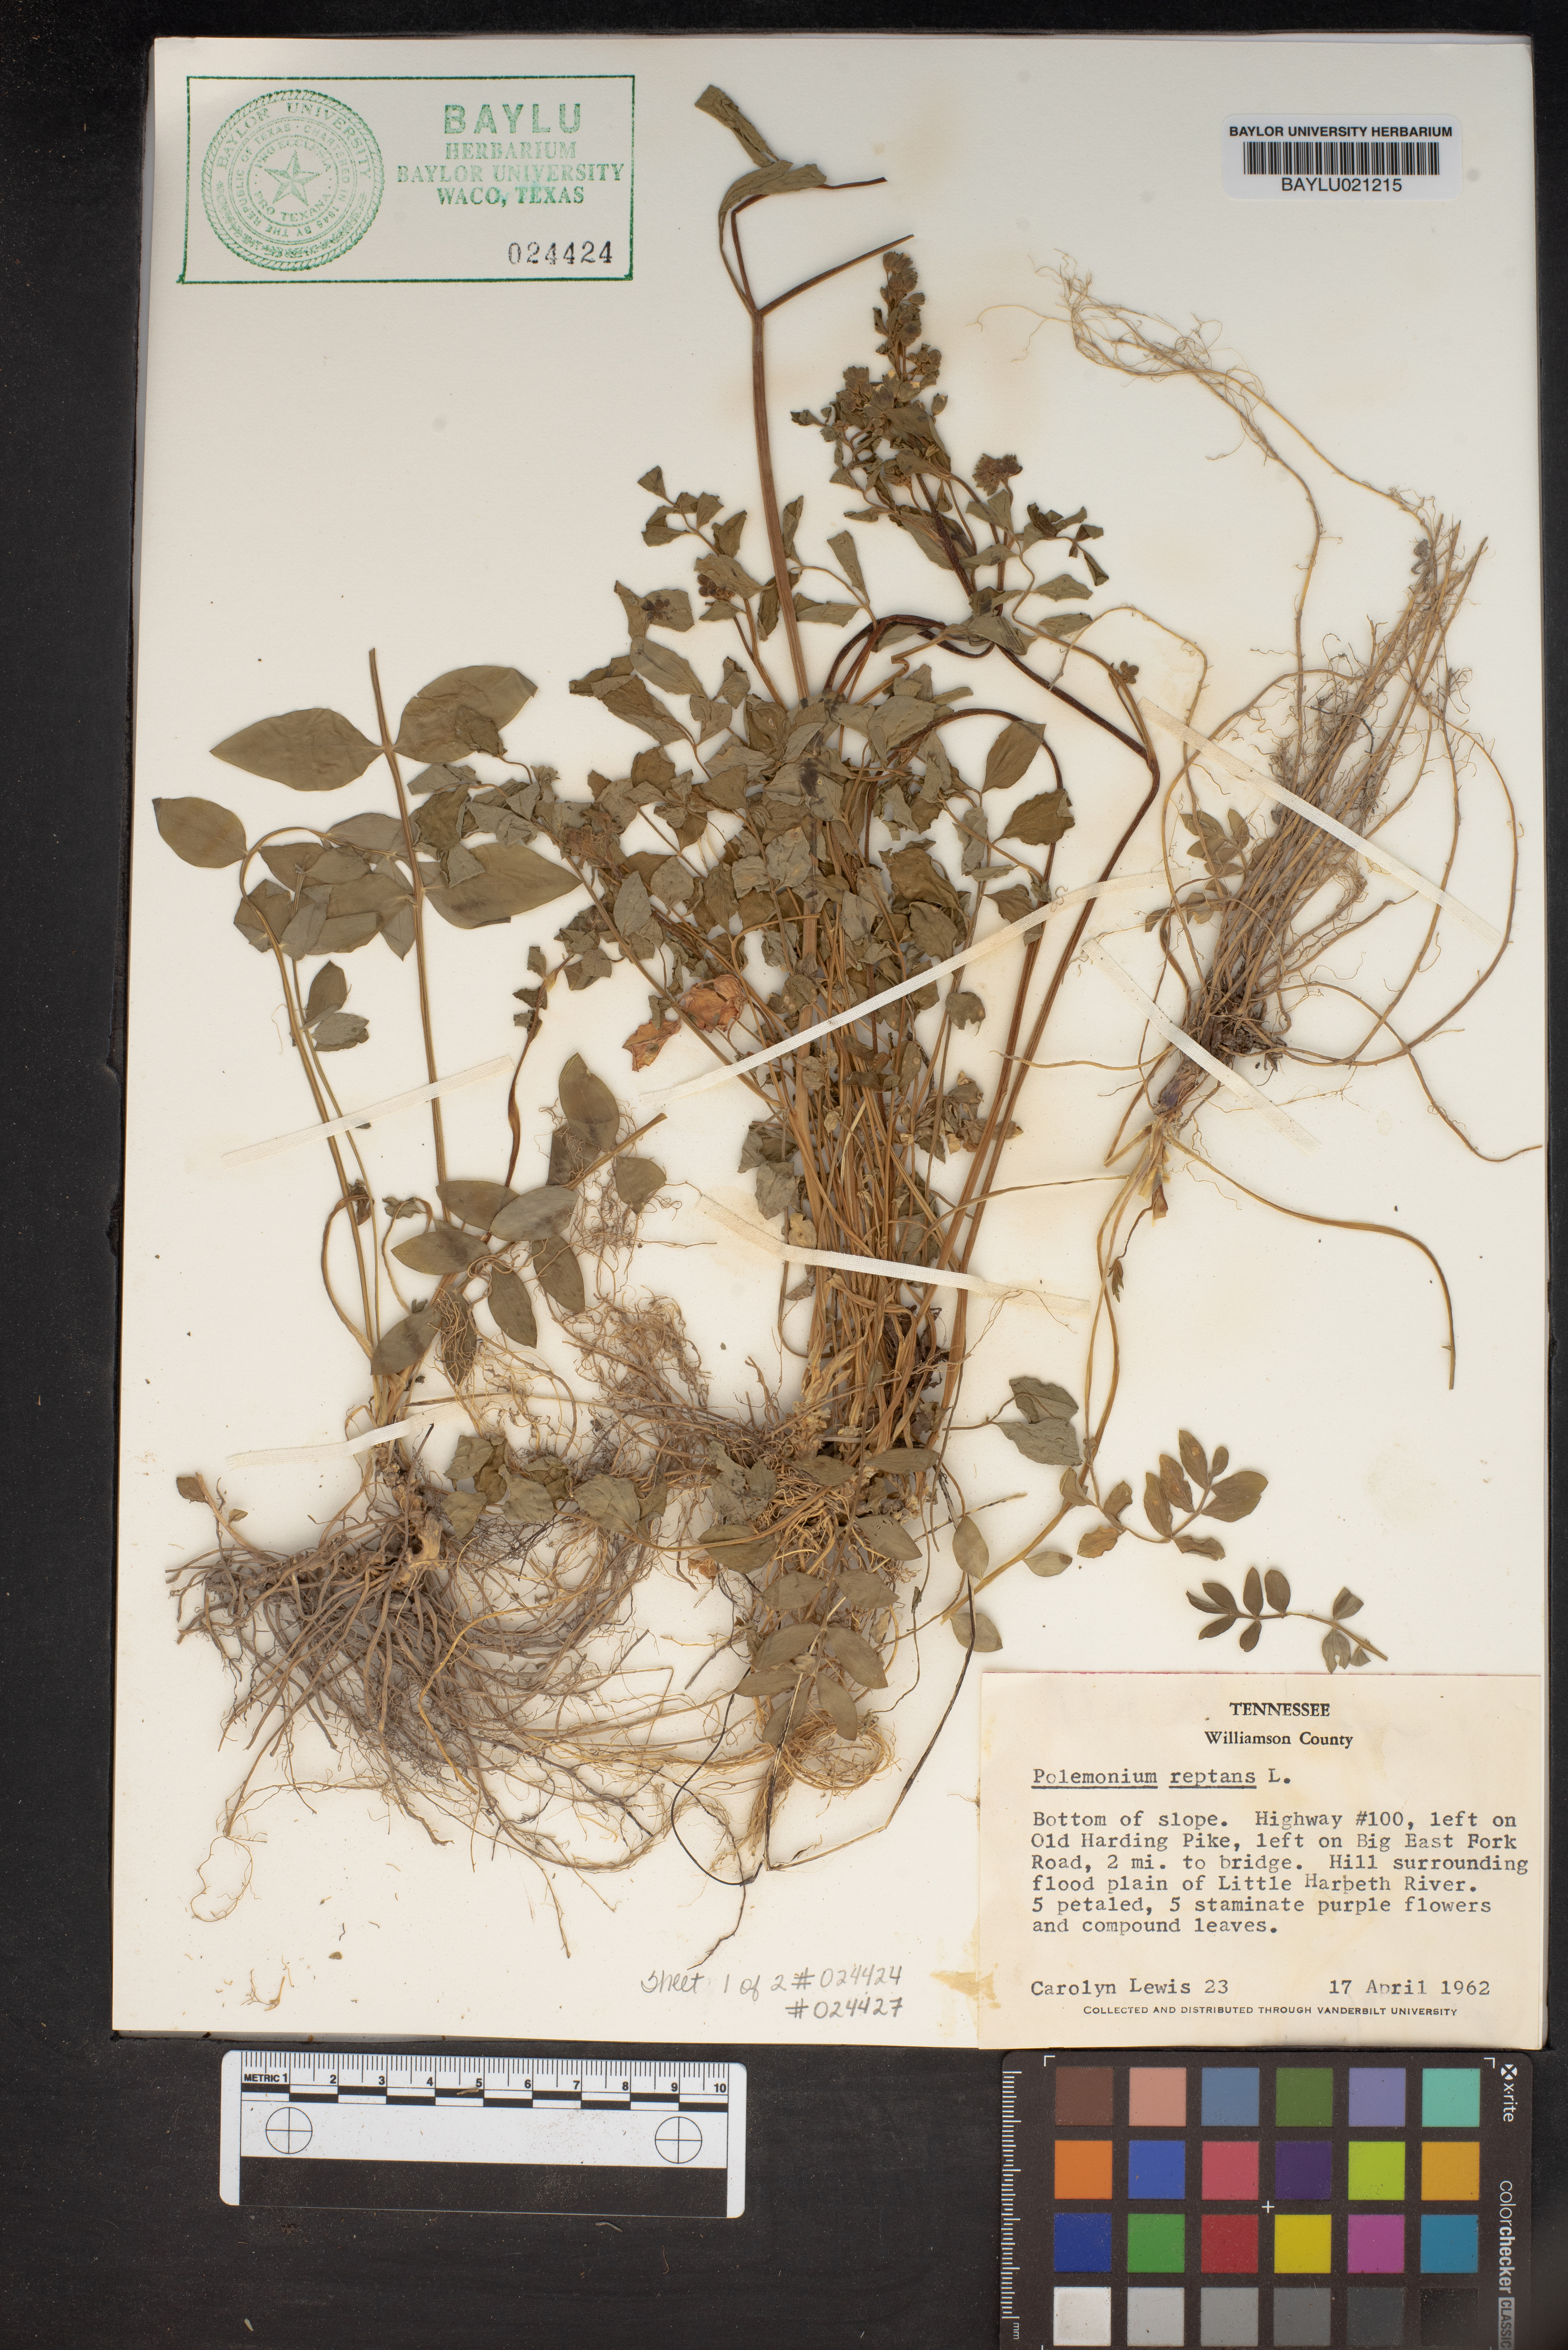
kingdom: Plantae
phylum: Tracheophyta
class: Magnoliopsida
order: Ericales
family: Polemoniaceae
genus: Polemonium
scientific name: Polemonium reptans
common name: Creeping jacob's-ladder
